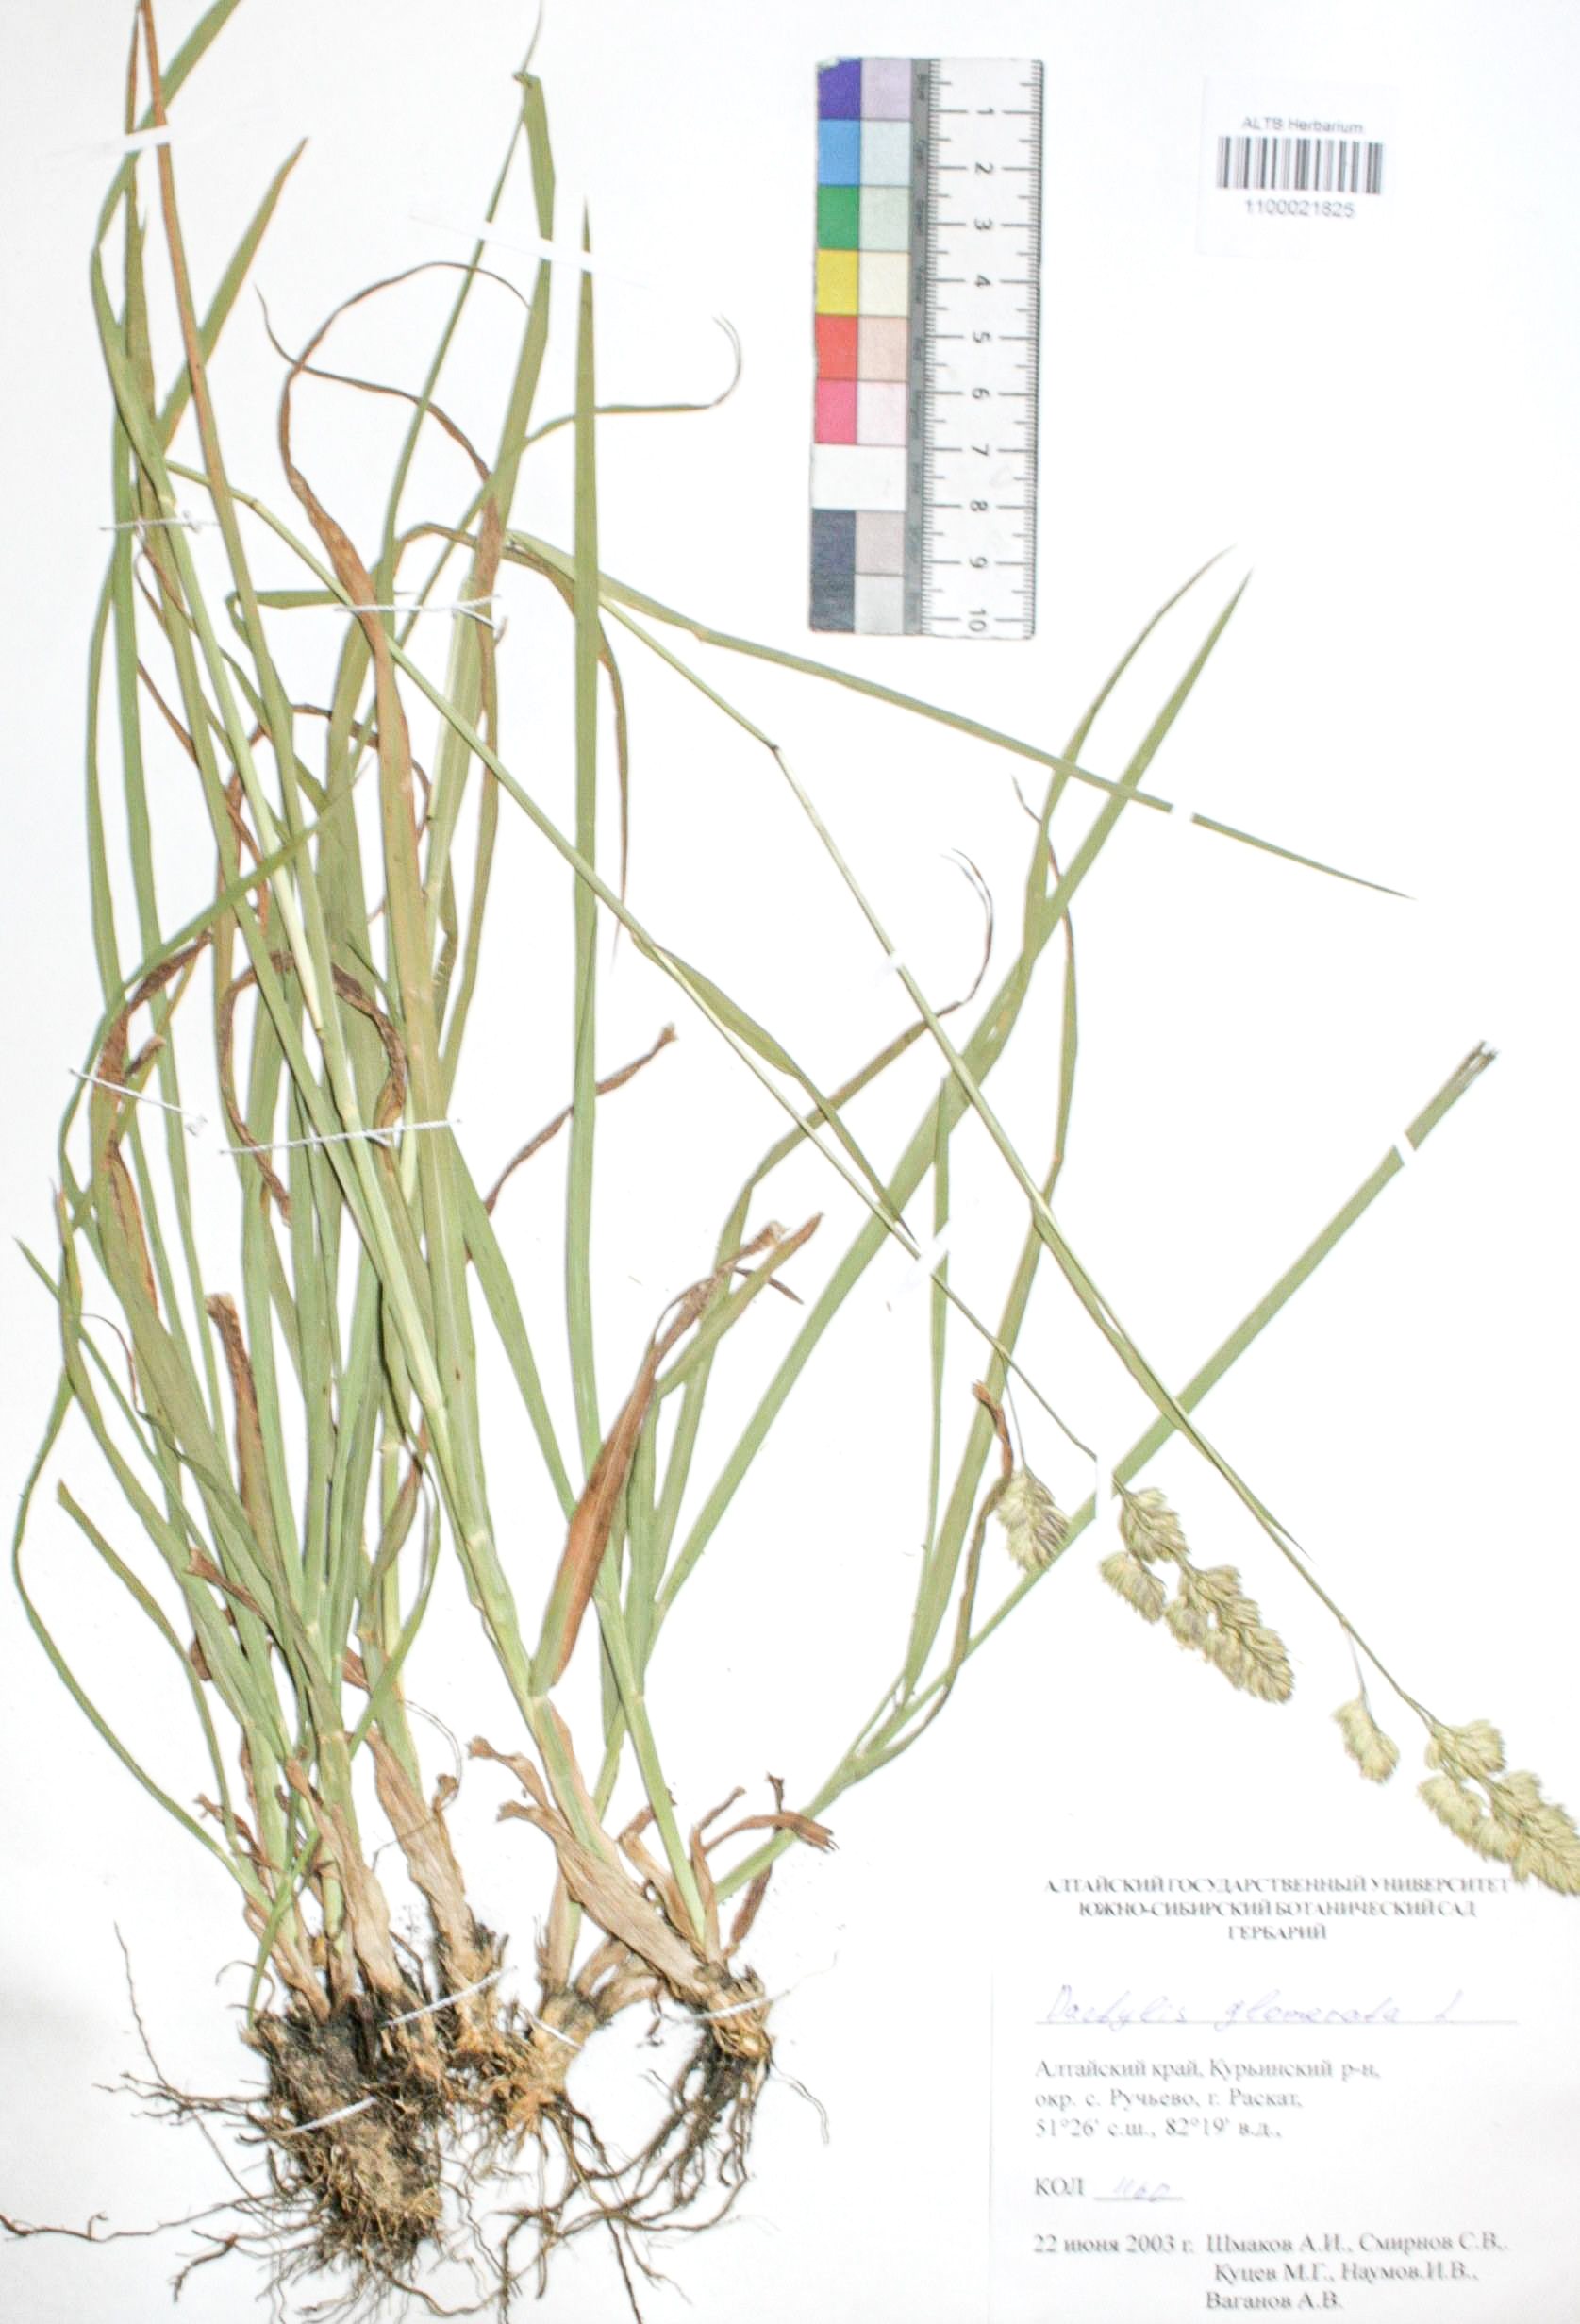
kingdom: Plantae
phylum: Tracheophyta
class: Liliopsida
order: Poales
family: Poaceae
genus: Dactylis
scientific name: Dactylis glomerata
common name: Orchardgrass
